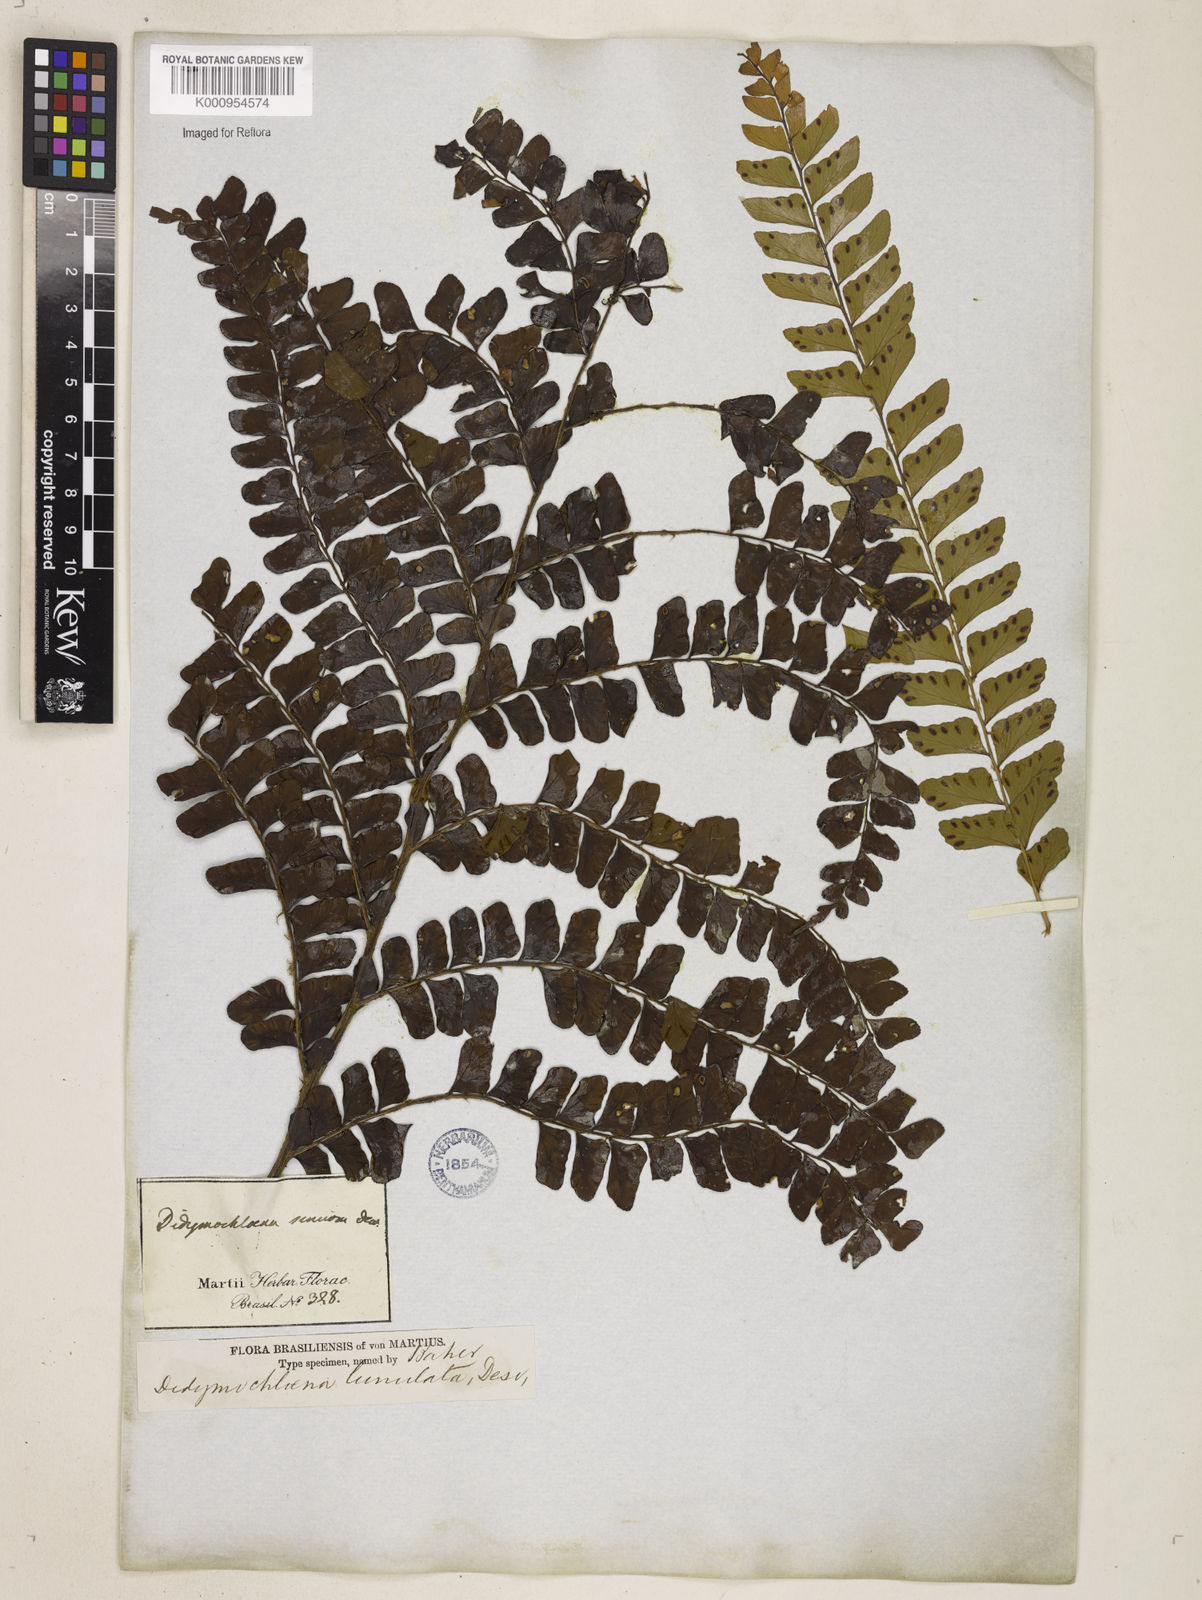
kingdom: Plantae
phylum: Tracheophyta
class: Polypodiopsida
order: Polypodiales
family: Didymochlaenaceae
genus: Didymochlaena
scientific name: Didymochlaena truncatula
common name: Mahogany fern
